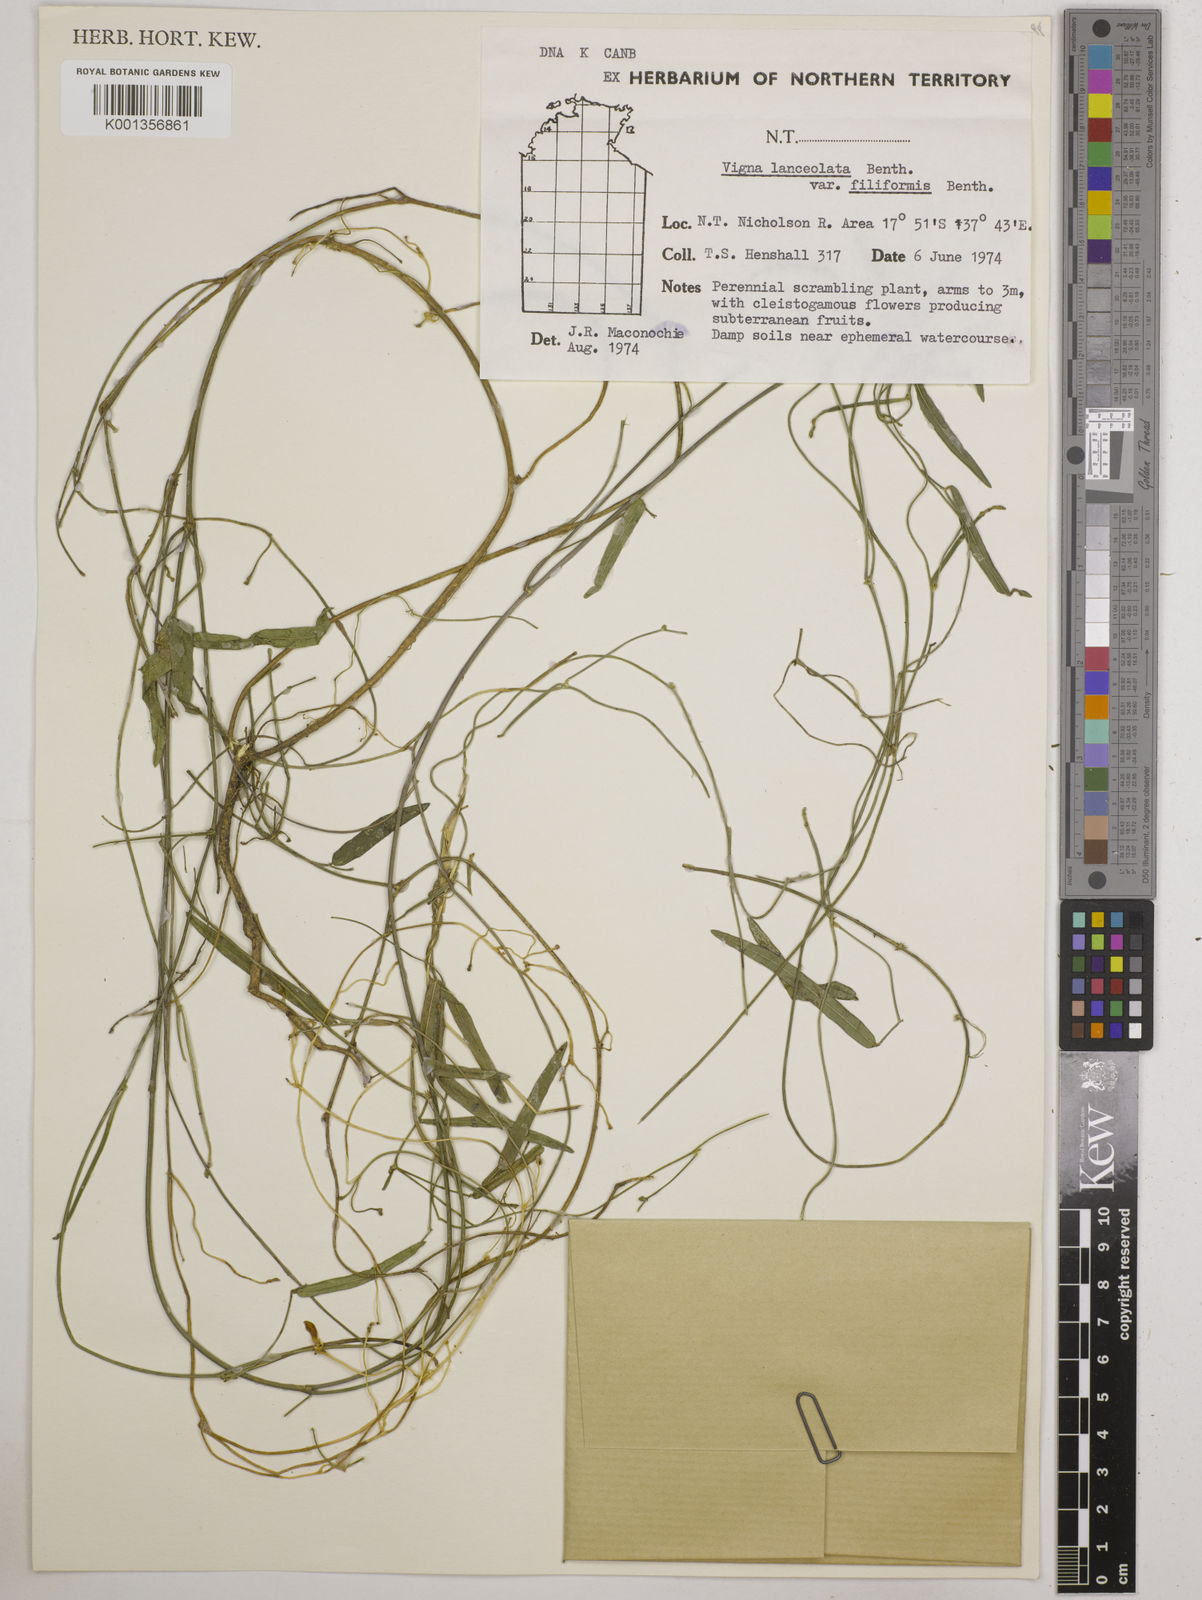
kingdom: Plantae
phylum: Tracheophyta
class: Magnoliopsida
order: Fabales
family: Fabaceae
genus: Vigna
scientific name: Vigna lanceolata
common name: Maloga-bean
